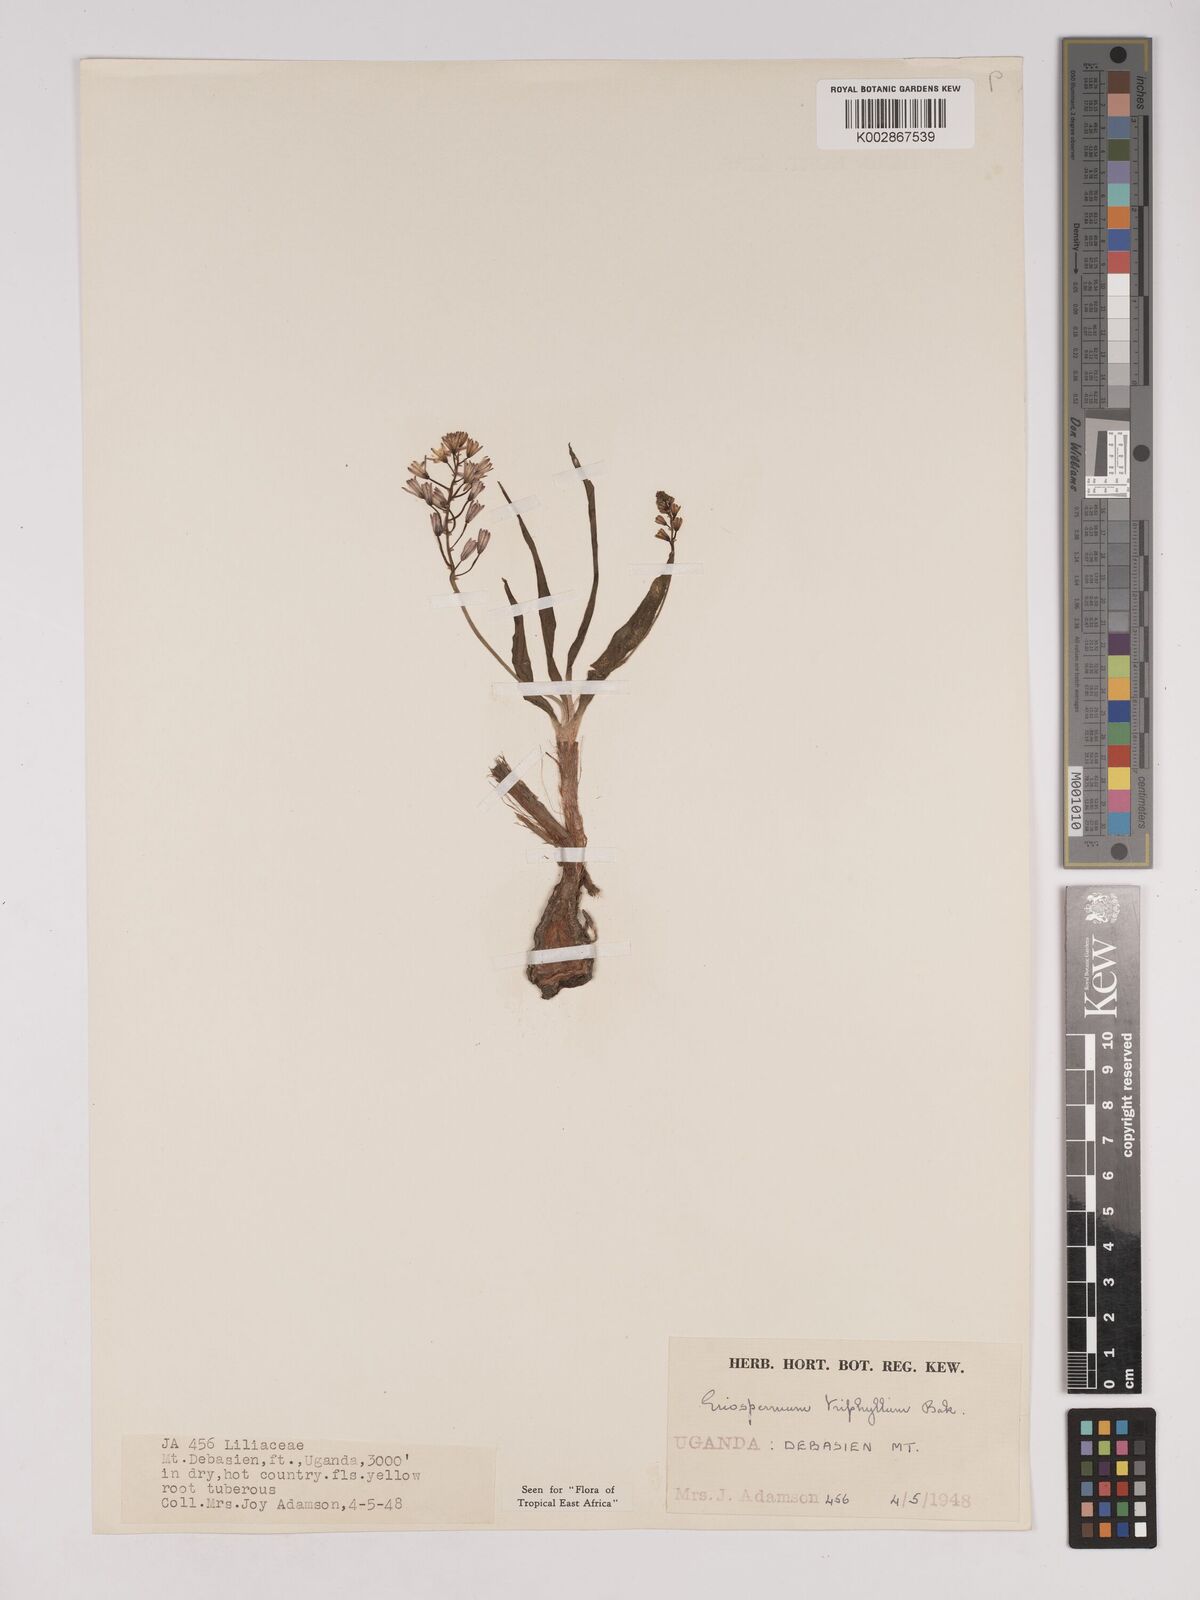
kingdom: Plantae
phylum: Tracheophyta
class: Liliopsida
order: Asparagales
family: Asparagaceae
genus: Eriospermum
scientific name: Eriospermum triphyllum
